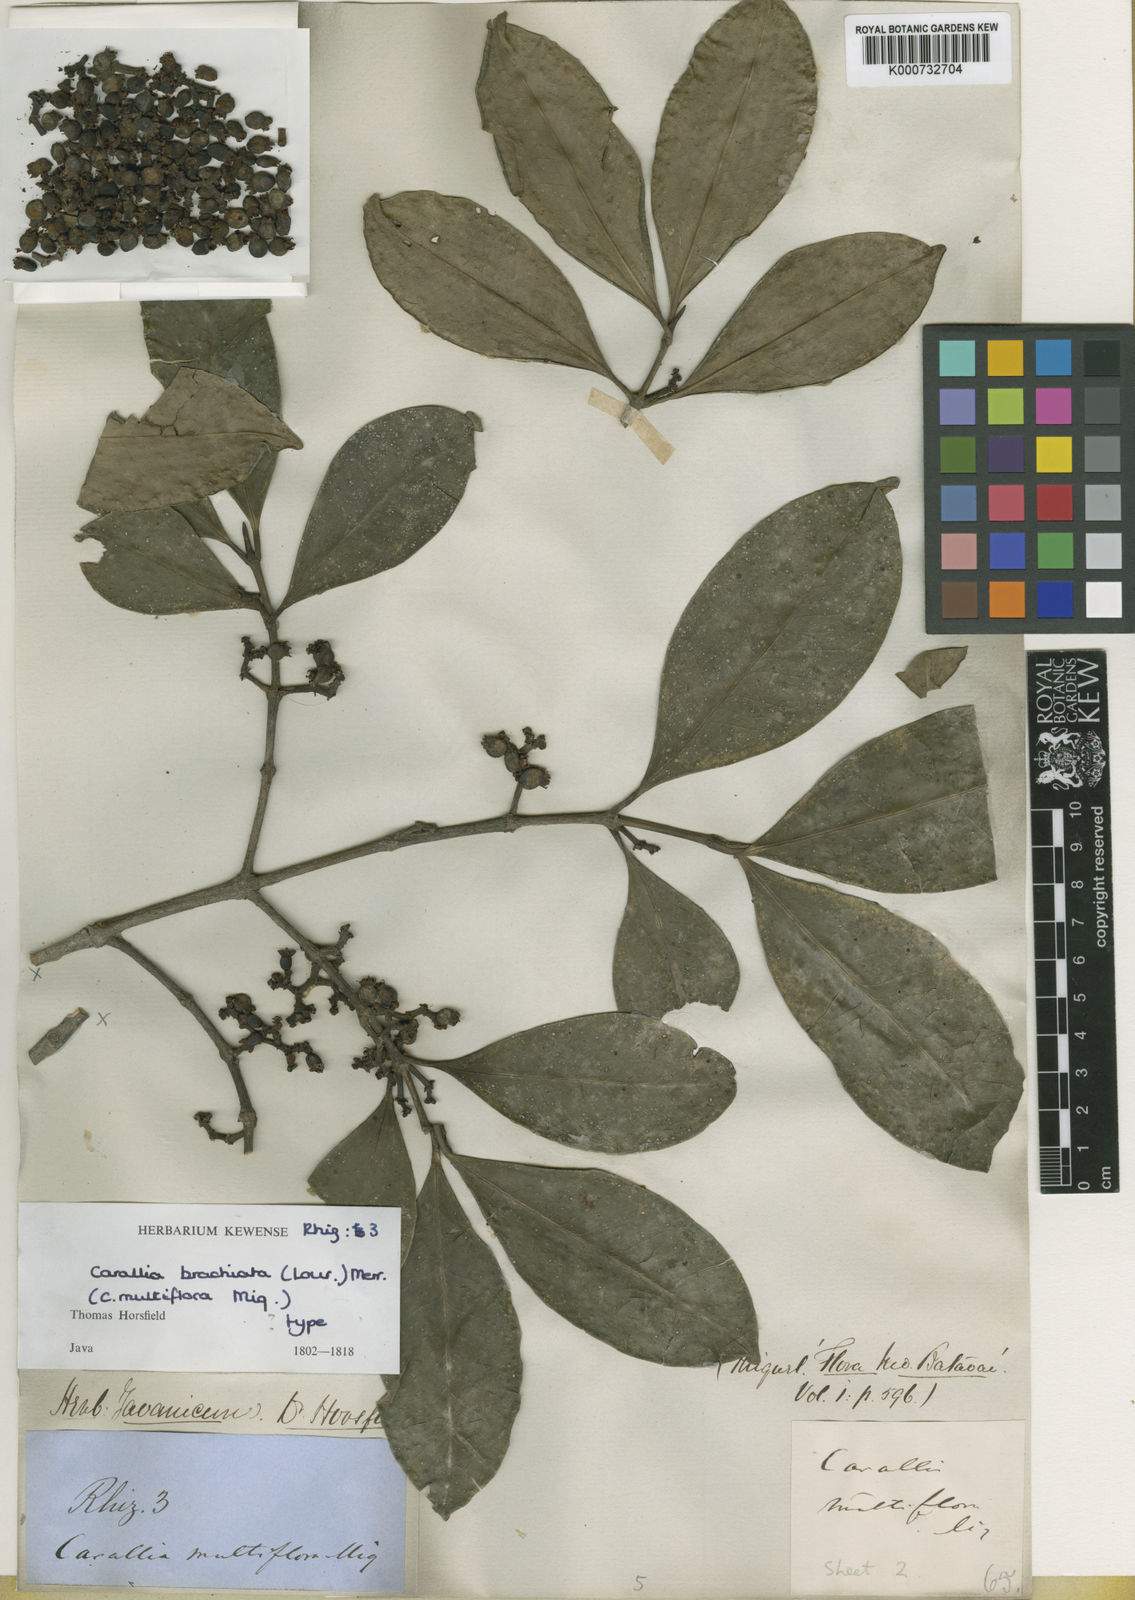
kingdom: Plantae
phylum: Tracheophyta
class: Magnoliopsida
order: Malpighiales
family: Rhizophoraceae
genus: Carallia
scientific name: Carallia brachiata
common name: Carallawood
